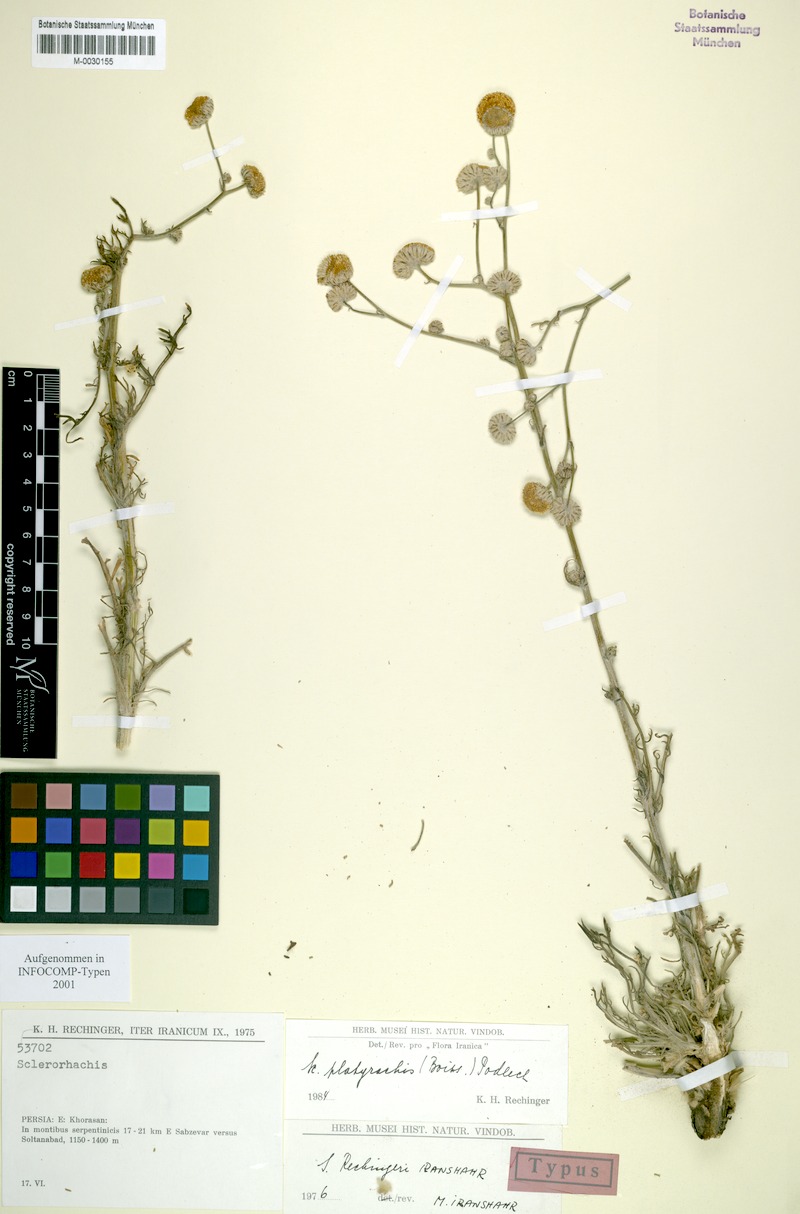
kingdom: Plantae
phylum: Tracheophyta
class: Magnoliopsida
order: Asterales
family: Asteraceae
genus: Sclerorhachis
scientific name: Sclerorhachis platyrachis
